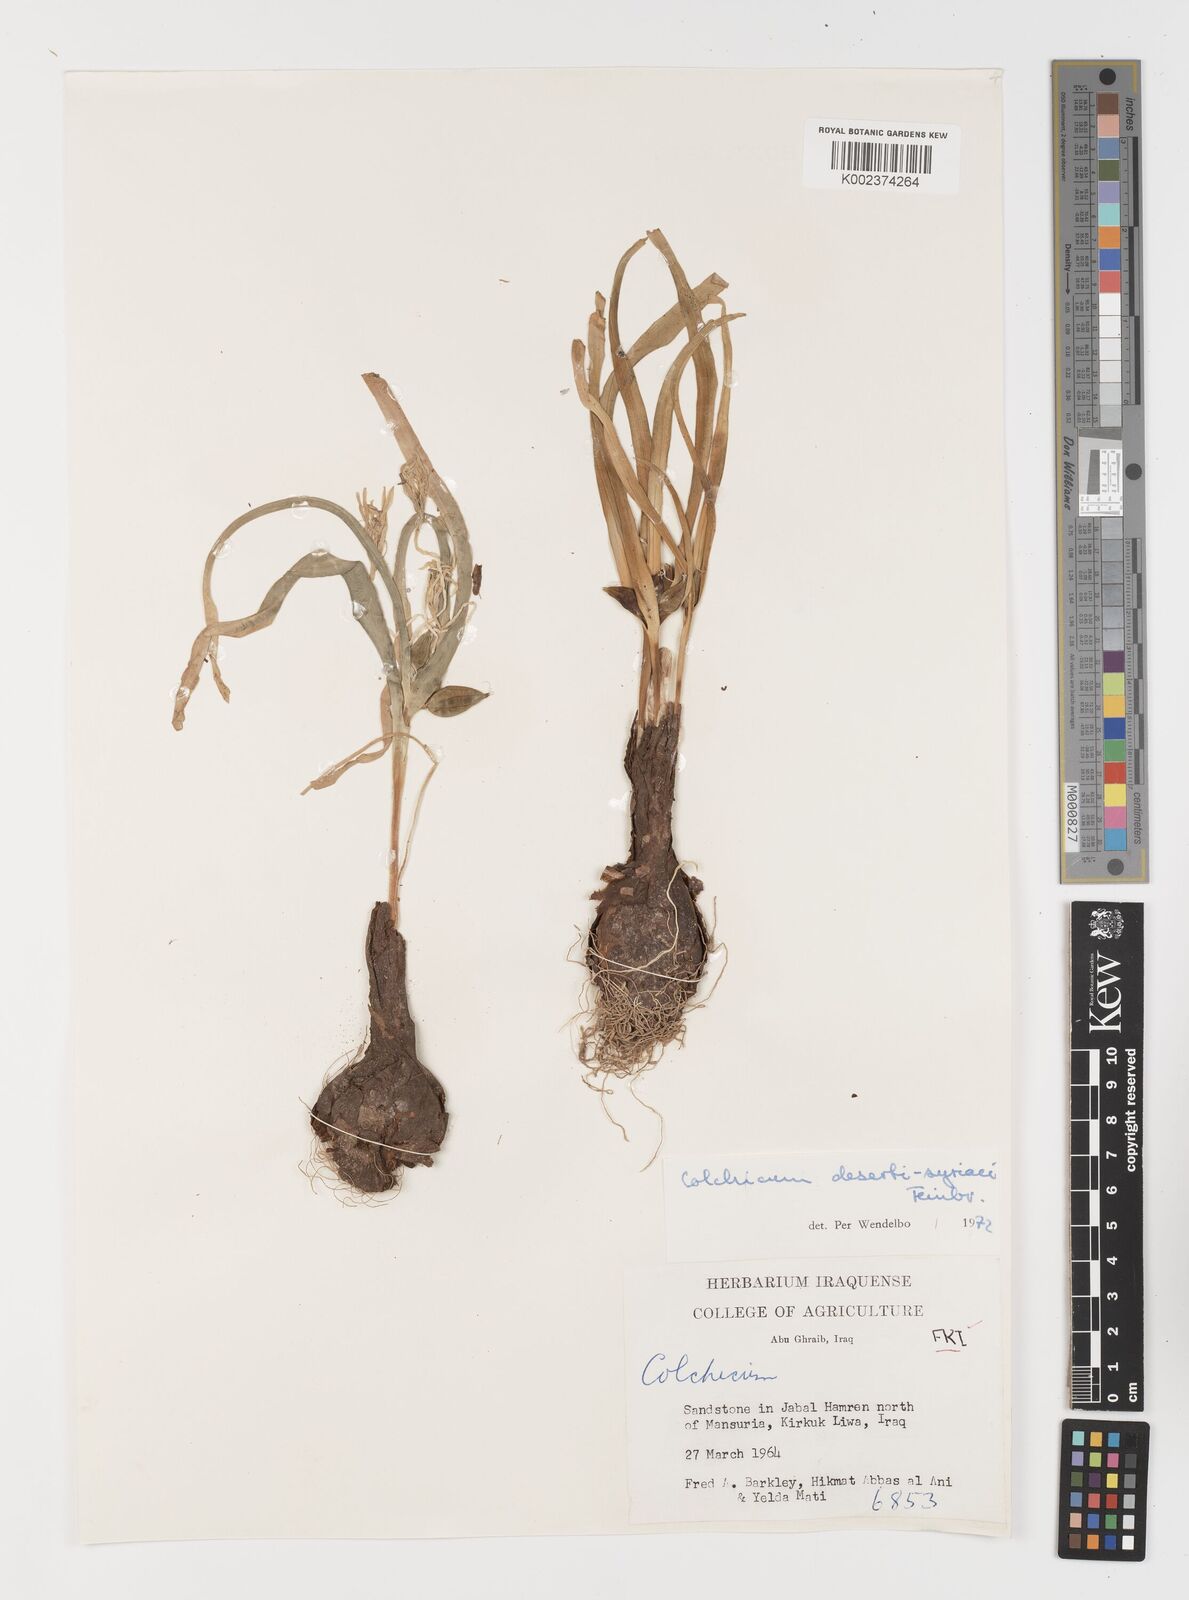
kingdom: Plantae
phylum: Tracheophyta
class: Liliopsida
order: Liliales
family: Colchicaceae
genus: Colchicum
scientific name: Colchicum schimperi
